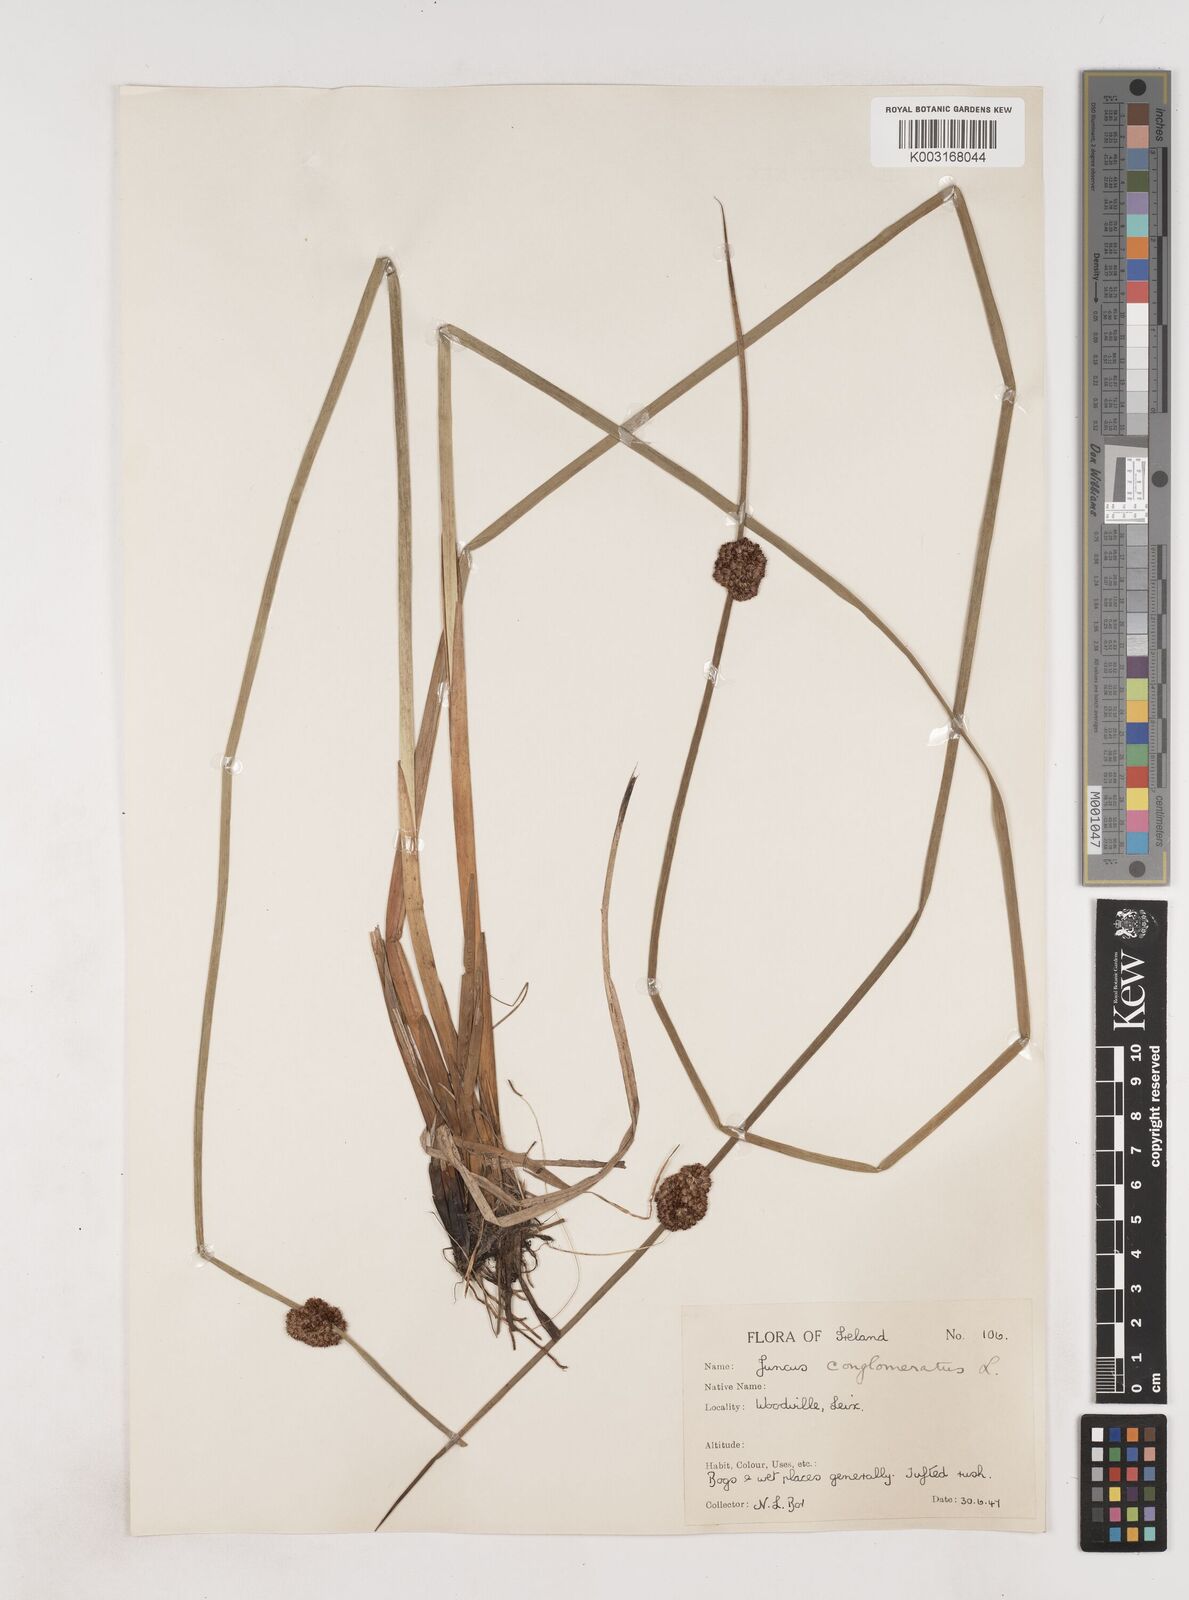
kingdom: Plantae
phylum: Tracheophyta
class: Liliopsida
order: Poales
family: Juncaceae
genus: Juncus
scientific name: Juncus conglomeratus
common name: Compact rush
